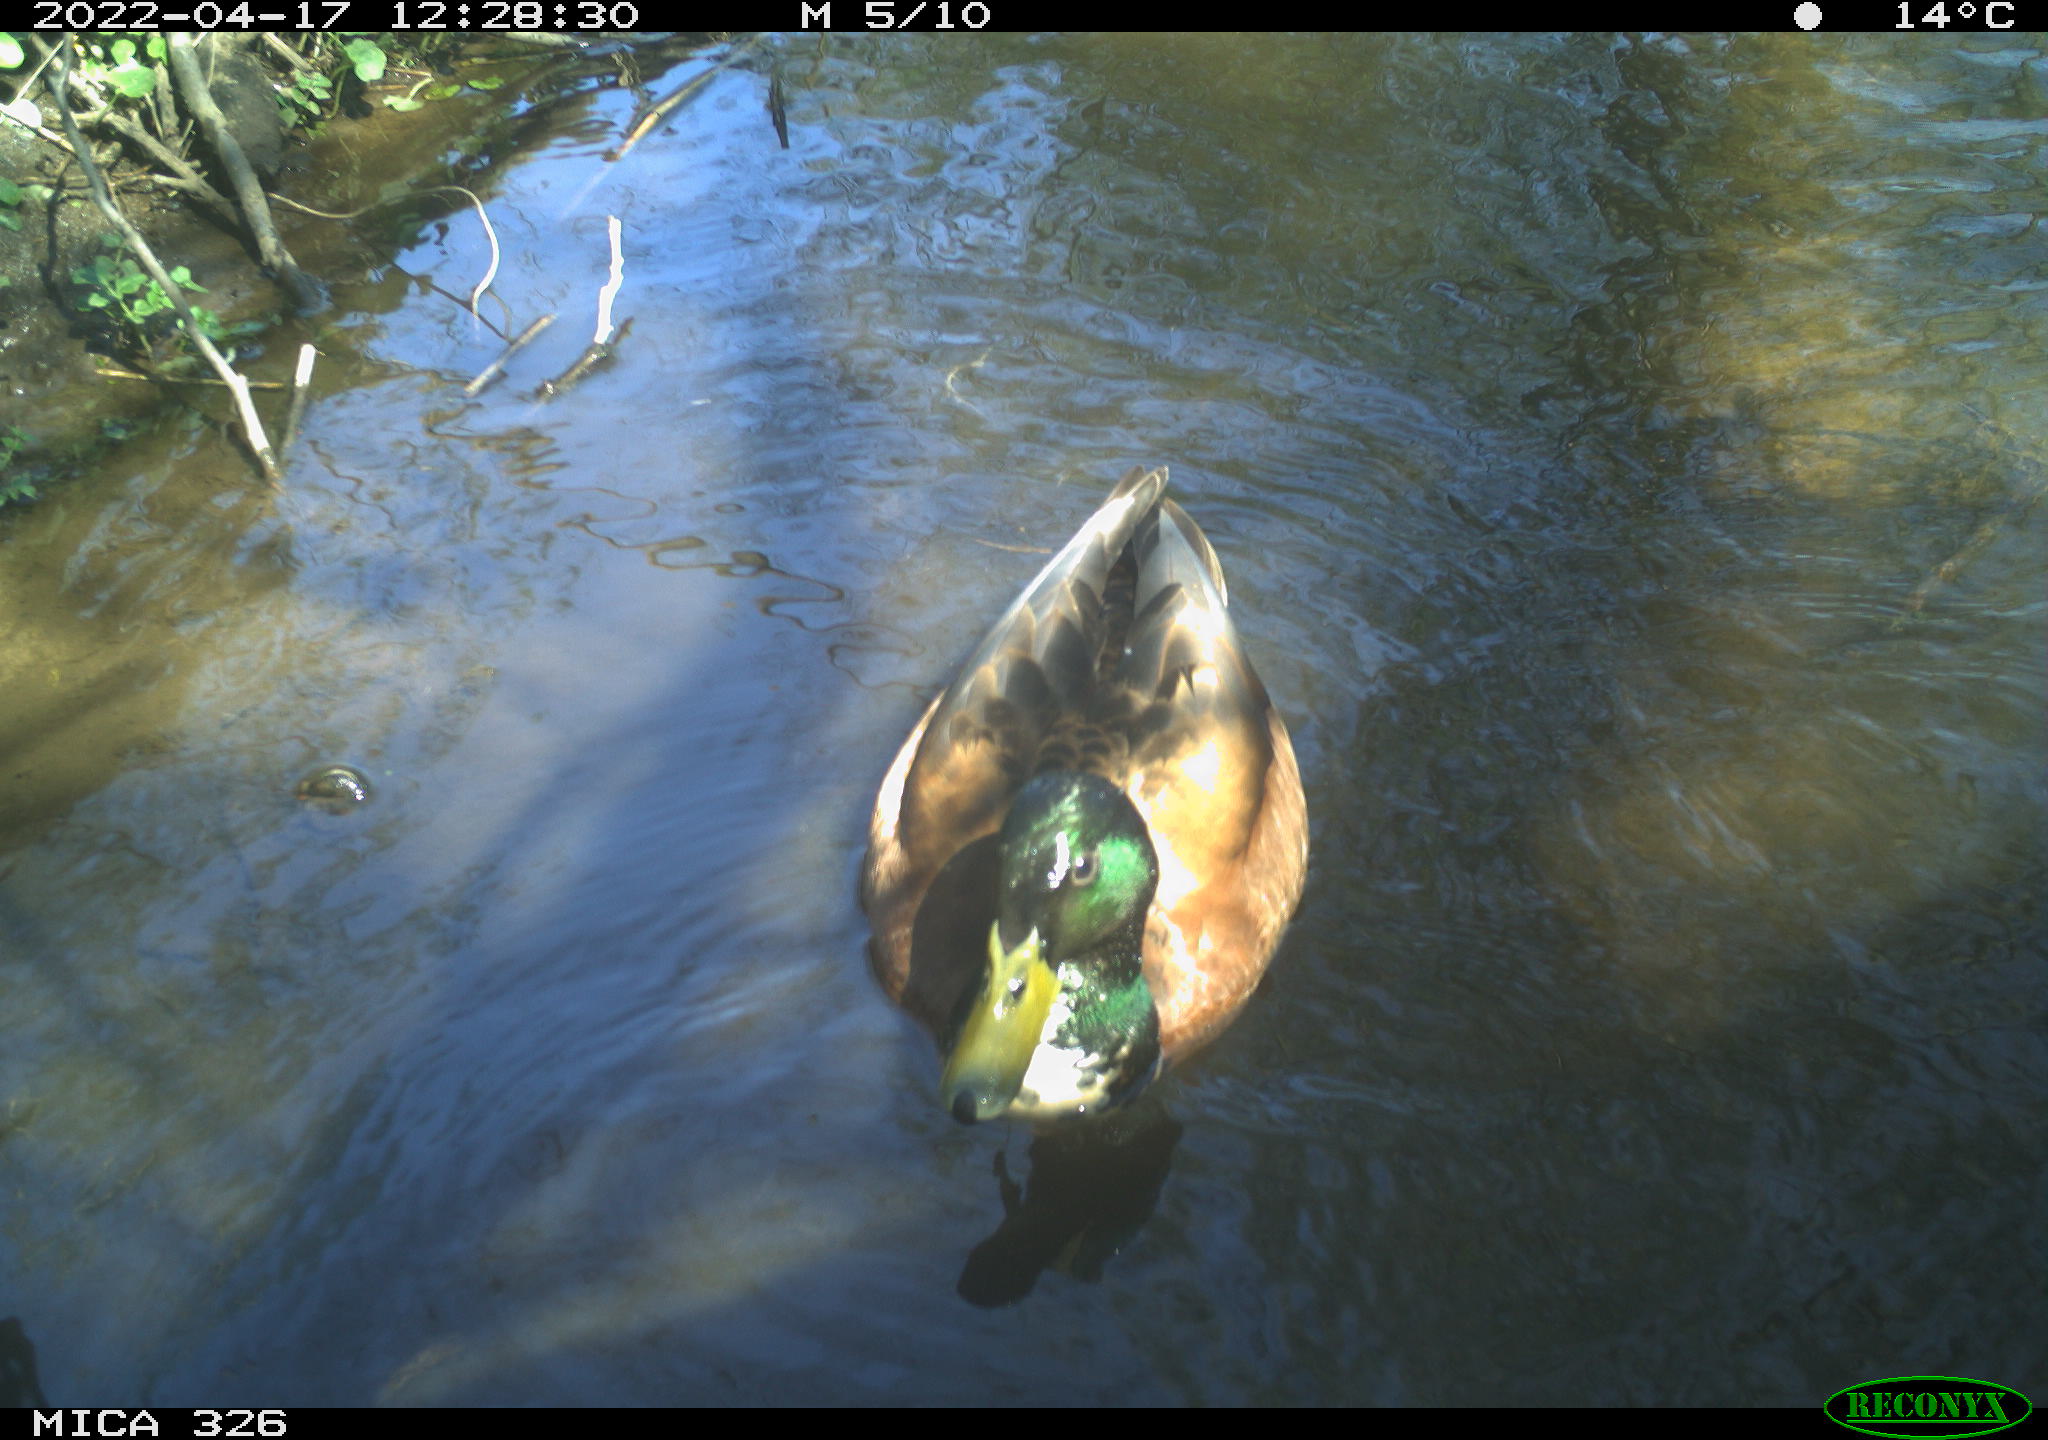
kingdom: Animalia
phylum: Chordata
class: Aves
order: Anseriformes
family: Anatidae
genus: Anas
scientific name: Anas platyrhynchos
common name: Mallard
